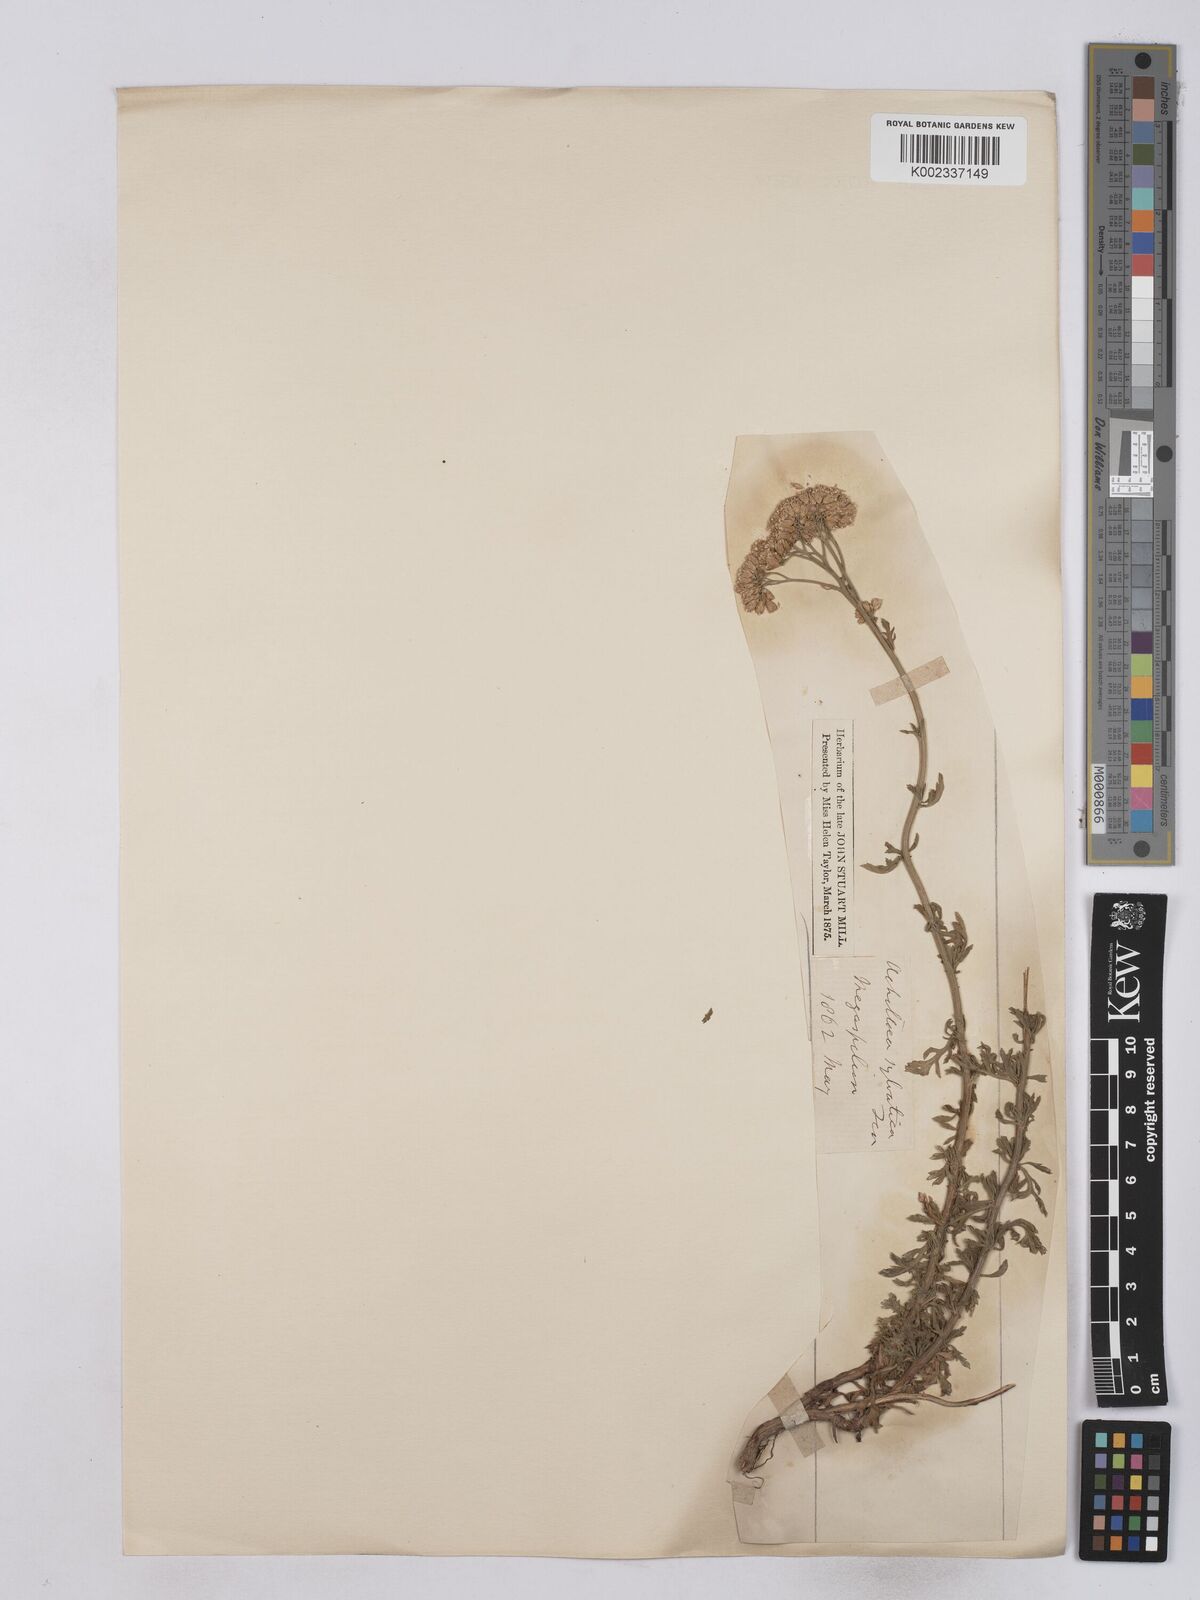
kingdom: Plantae
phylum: Tracheophyta
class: Magnoliopsida
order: Asterales
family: Asteraceae
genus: Achillea
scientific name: Achillea ligustica
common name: Southern yarrow
